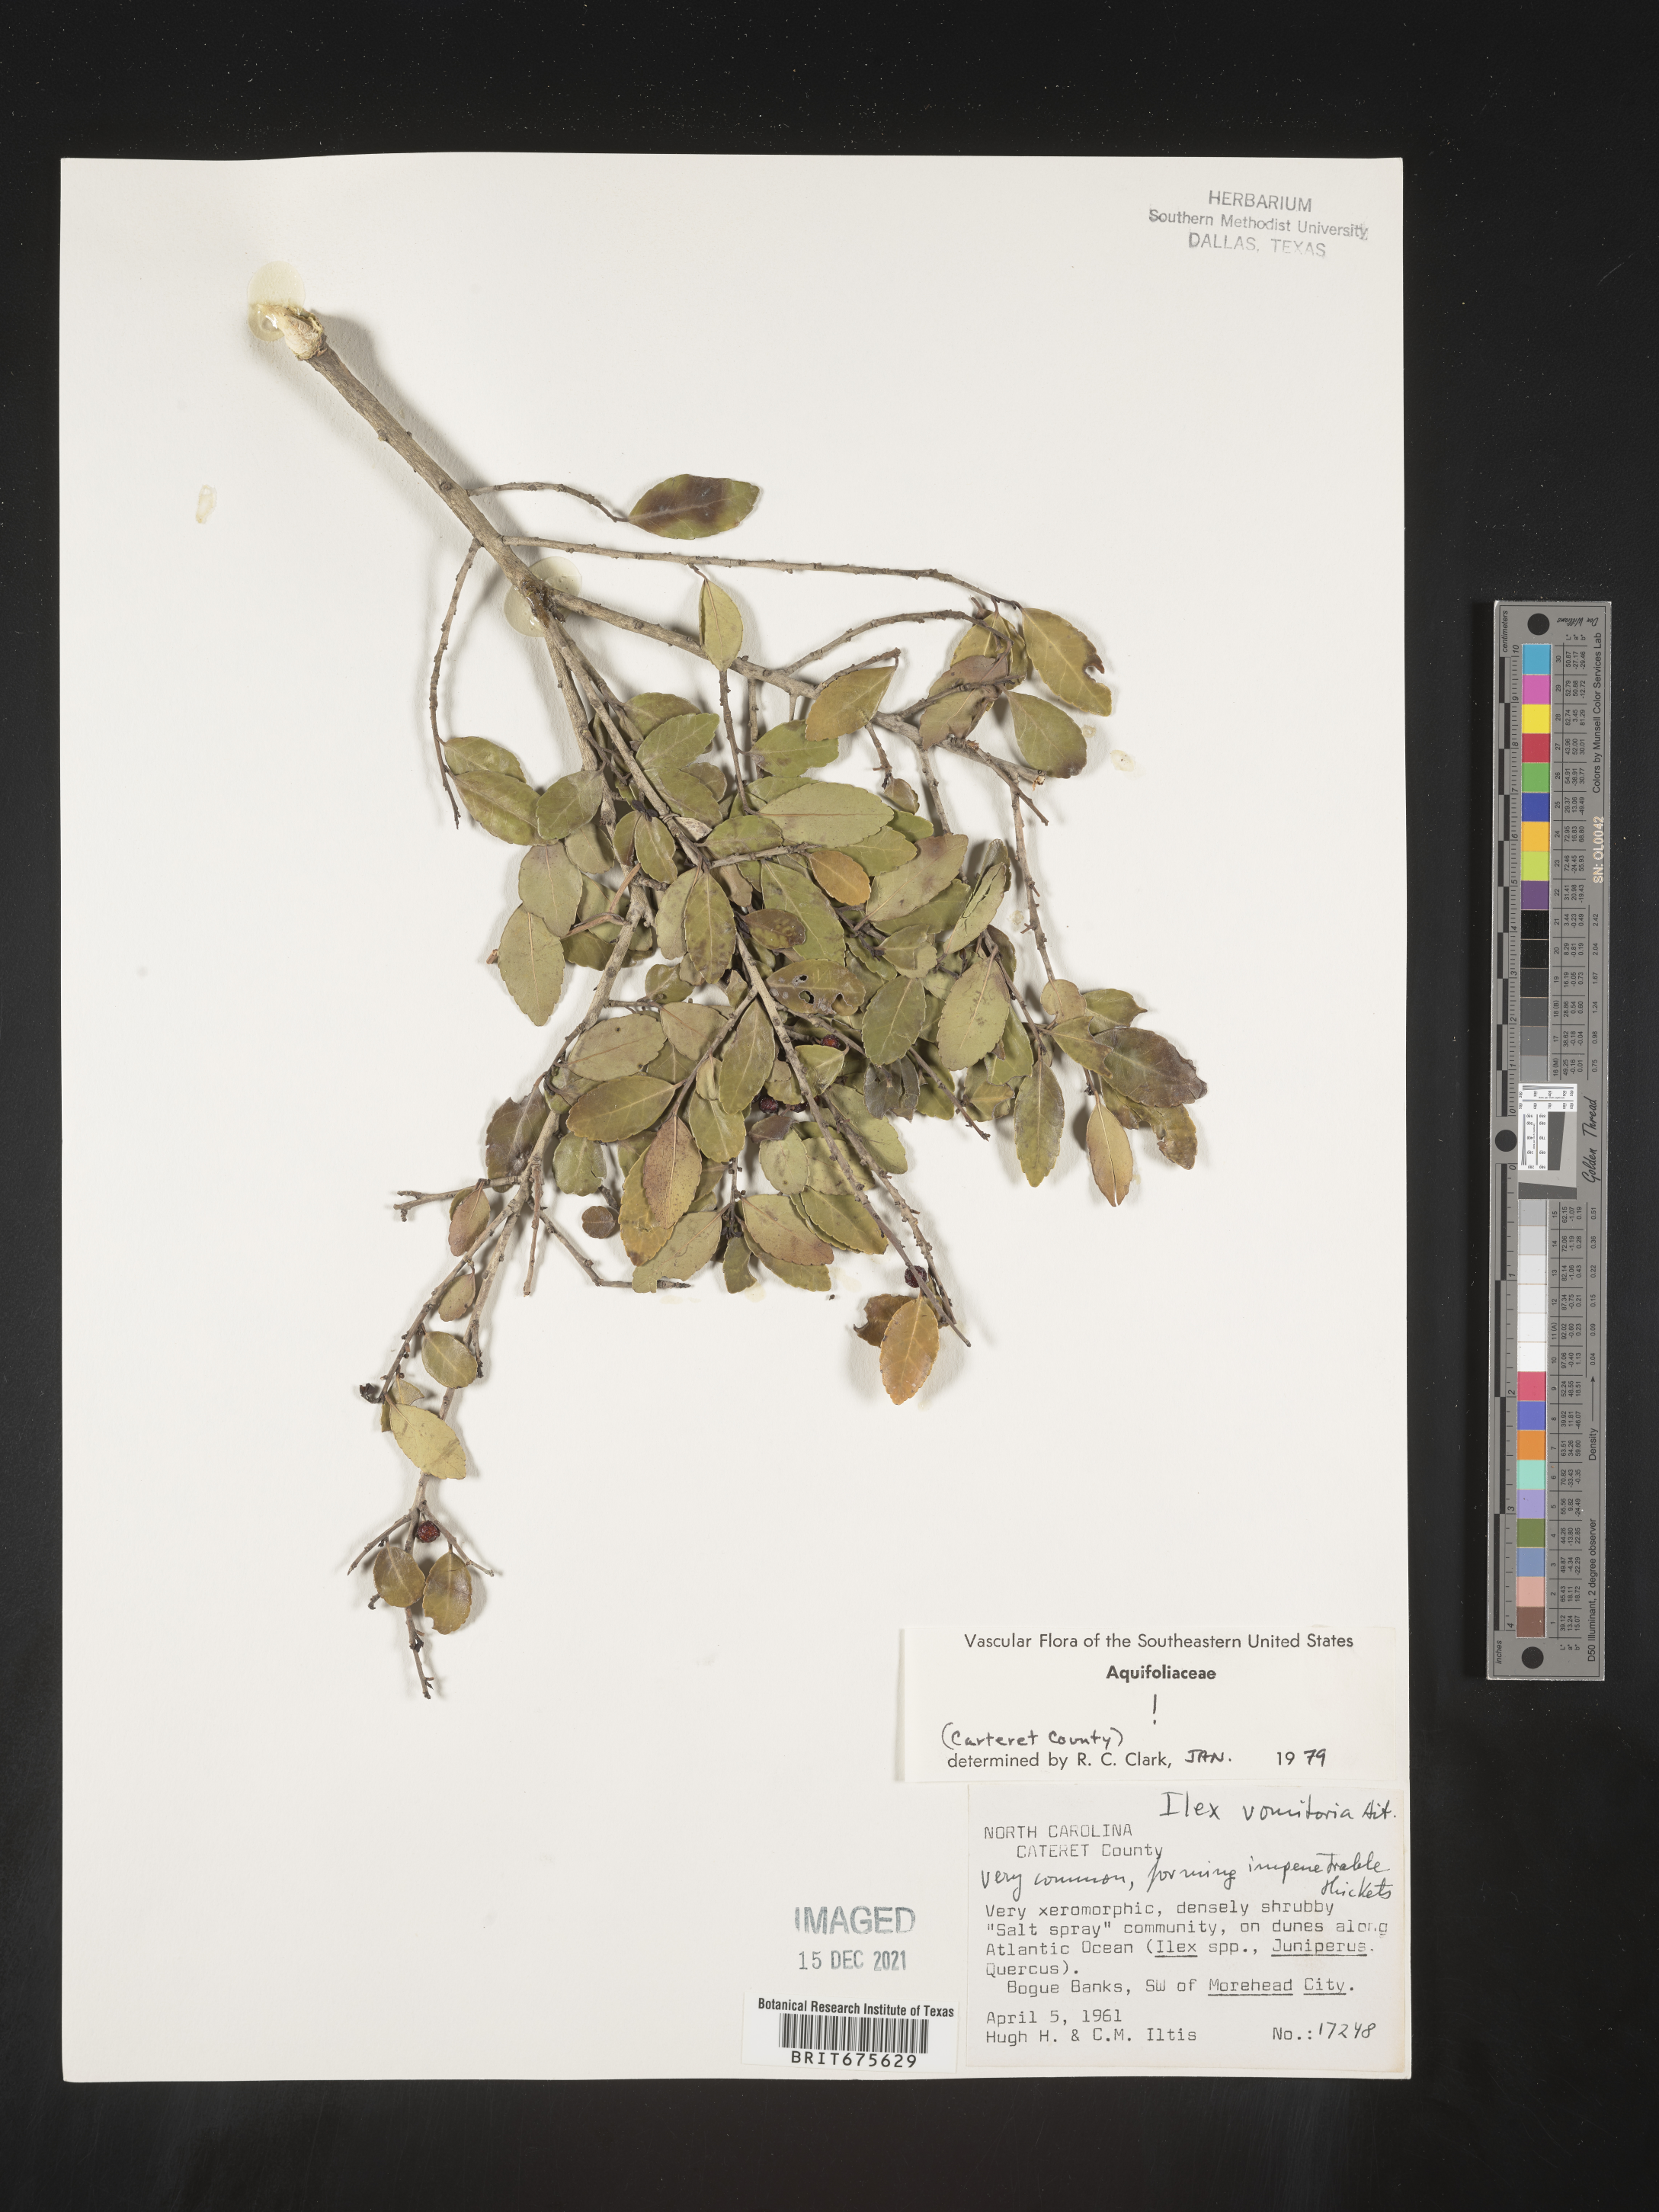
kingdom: Plantae
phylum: Tracheophyta
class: Magnoliopsida
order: Aquifoliales
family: Aquifoliaceae
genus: Ilex
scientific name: Ilex vomitoria
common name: Yaupon holly
